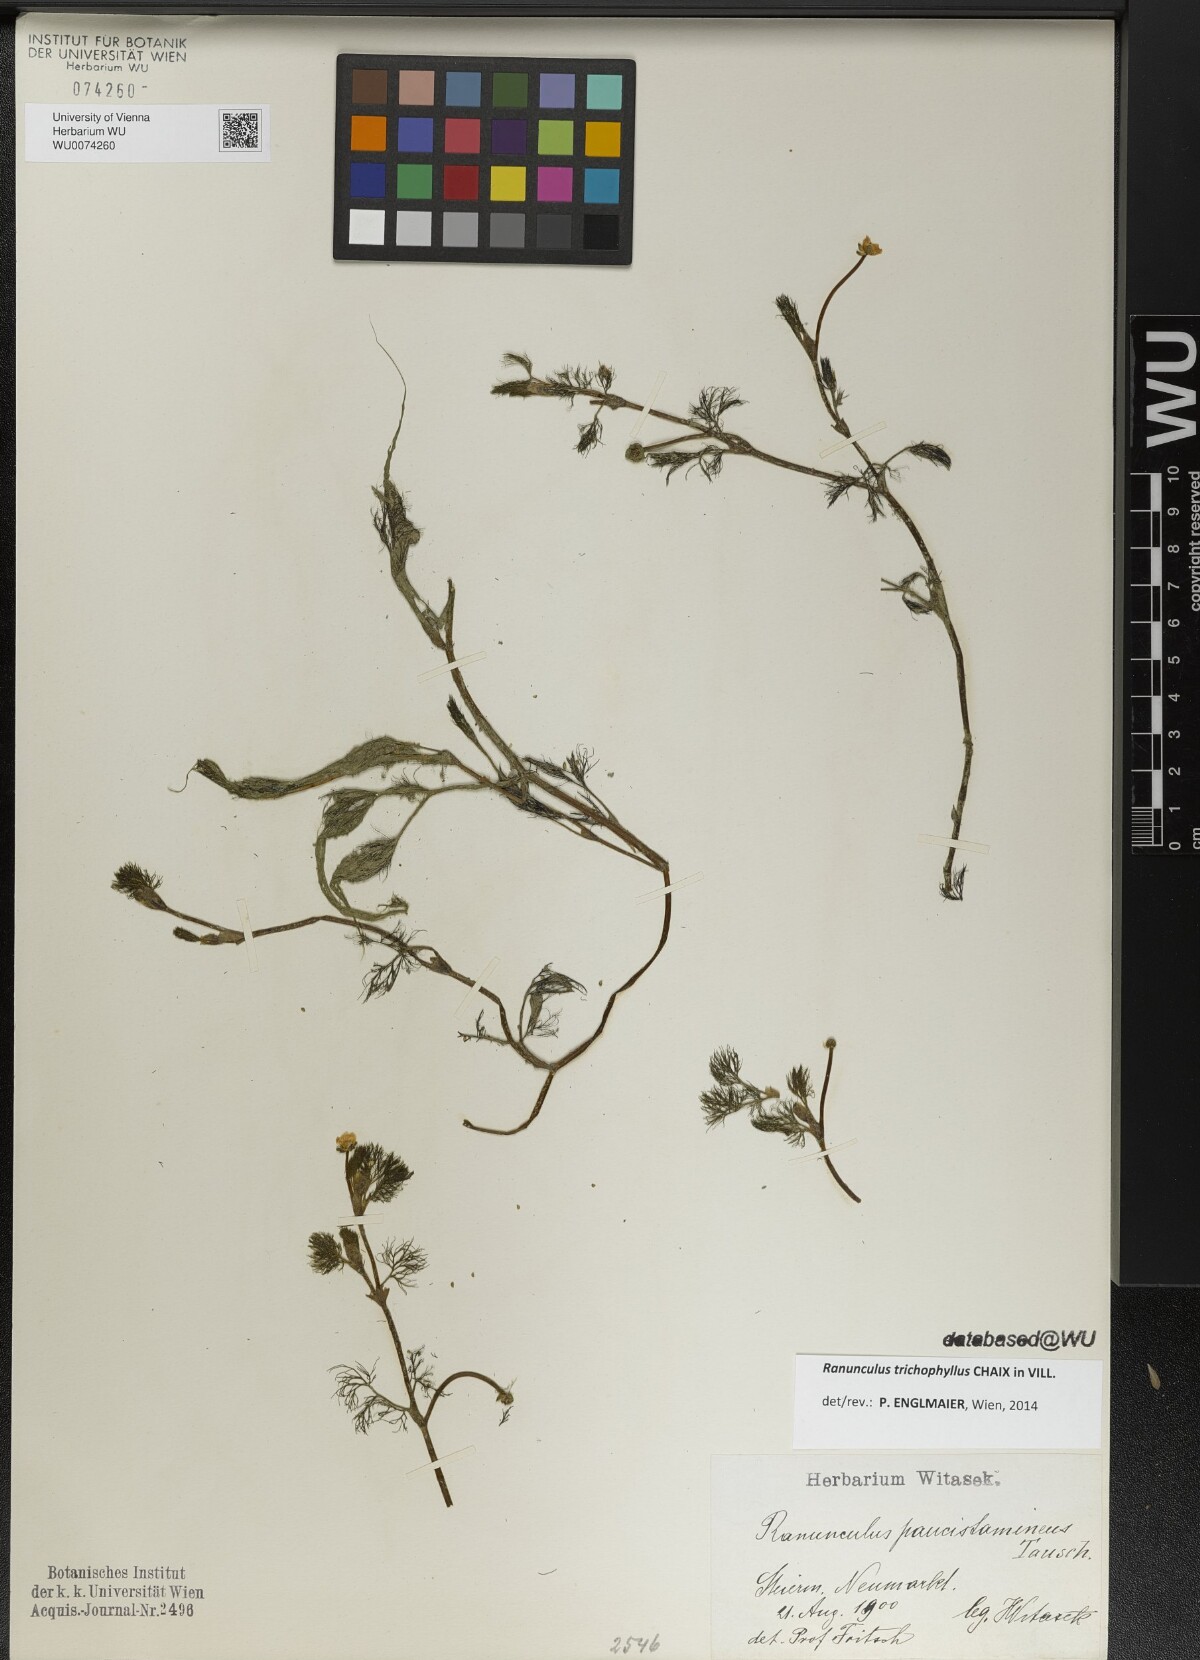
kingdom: Plantae
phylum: Tracheophyta
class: Magnoliopsida
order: Ranunculales
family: Ranunculaceae
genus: Ranunculus
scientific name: Ranunculus trichophyllus
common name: Thread-leaved water-crowfoot
